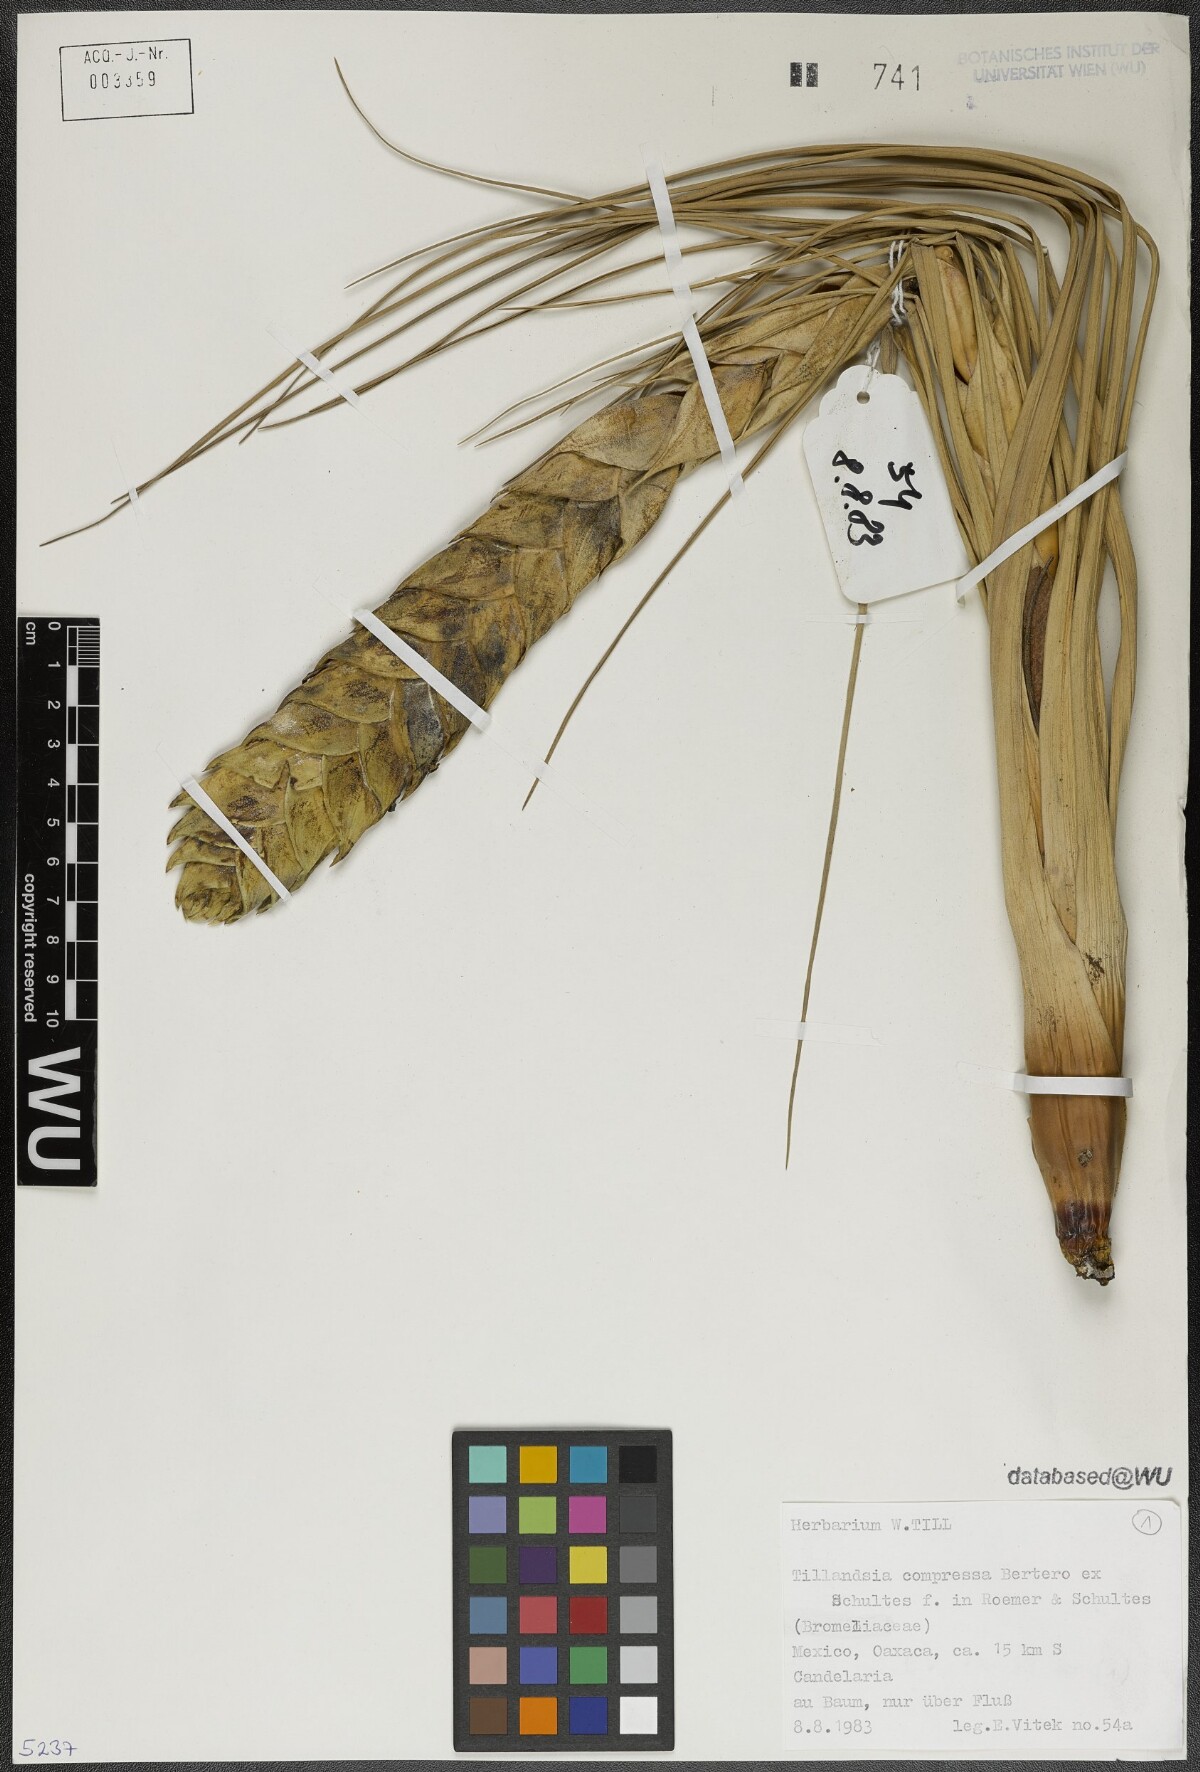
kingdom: Plantae
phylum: Tracheophyta
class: Liliopsida
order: Poales
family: Bromeliaceae
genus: Tillandsia
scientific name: Tillandsia compressa
